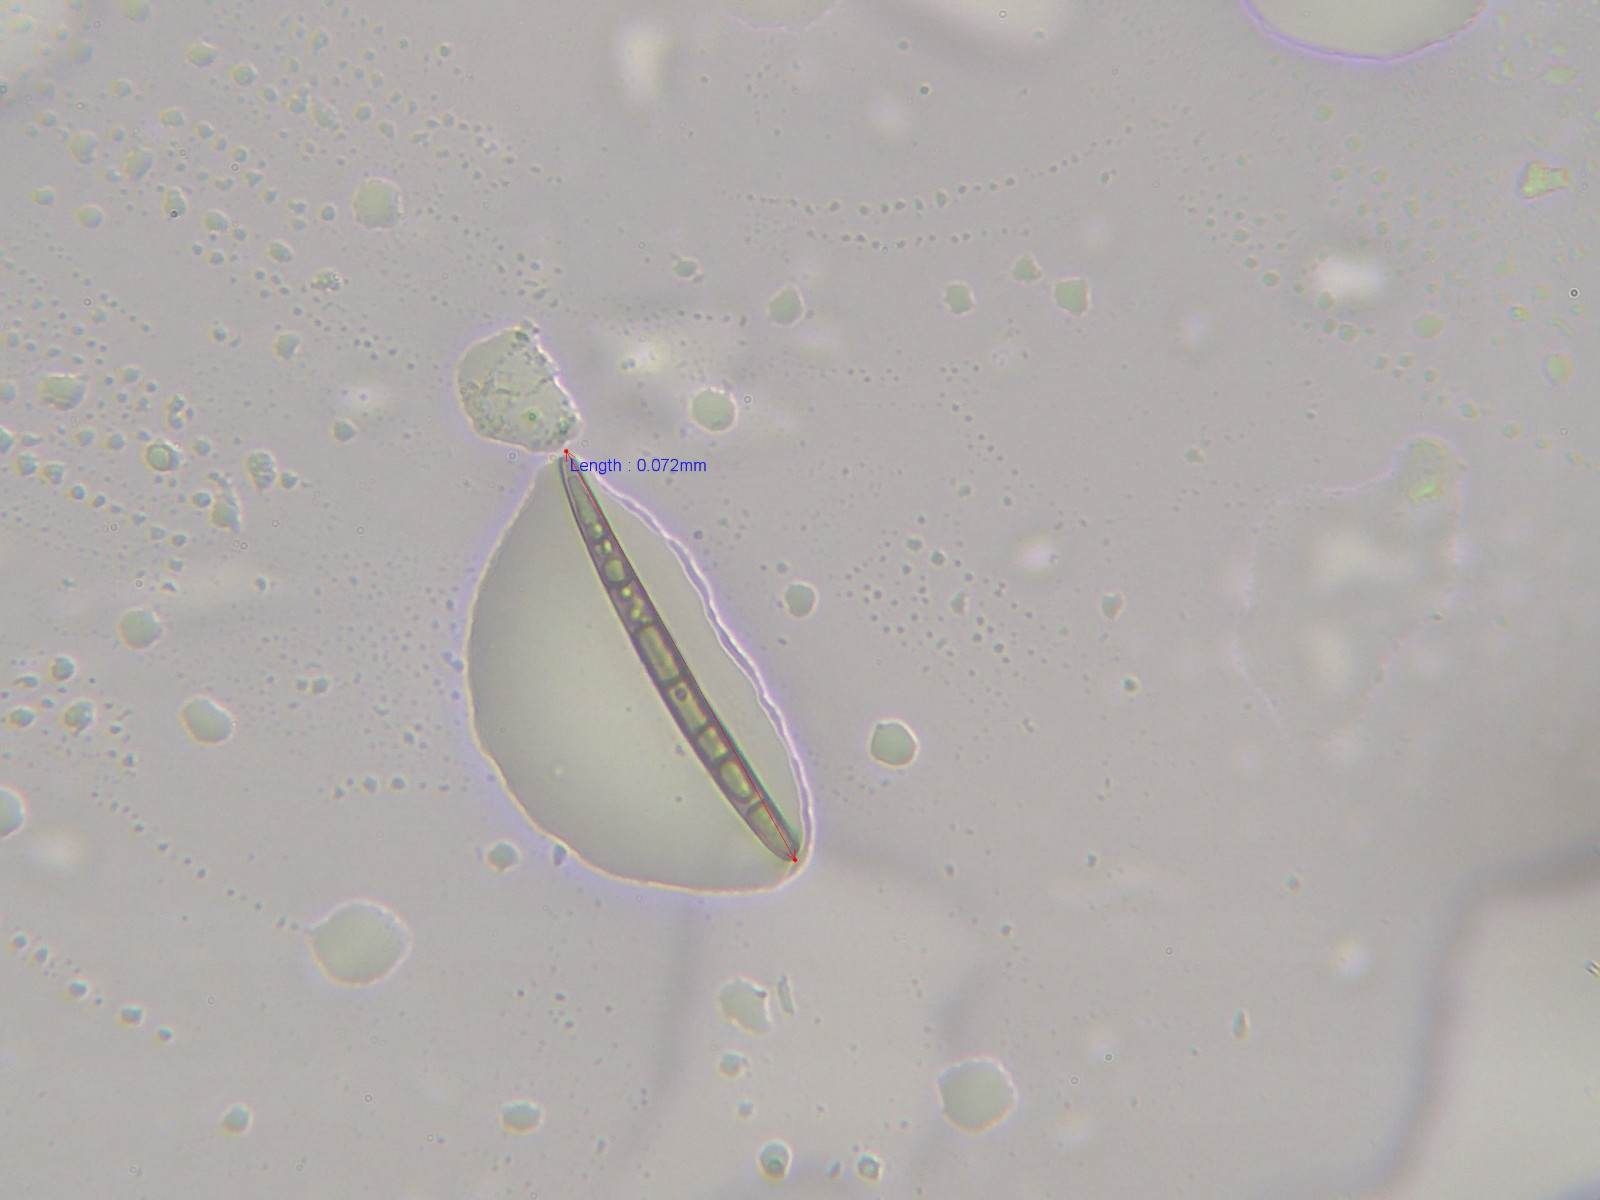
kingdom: Fungi
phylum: Ascomycota
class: Geoglossomycetes
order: Geoglossales
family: Geoglossaceae
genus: Hemileucoglossum
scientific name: Hemileucoglossum elongatum
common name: småsporet jordtunge
